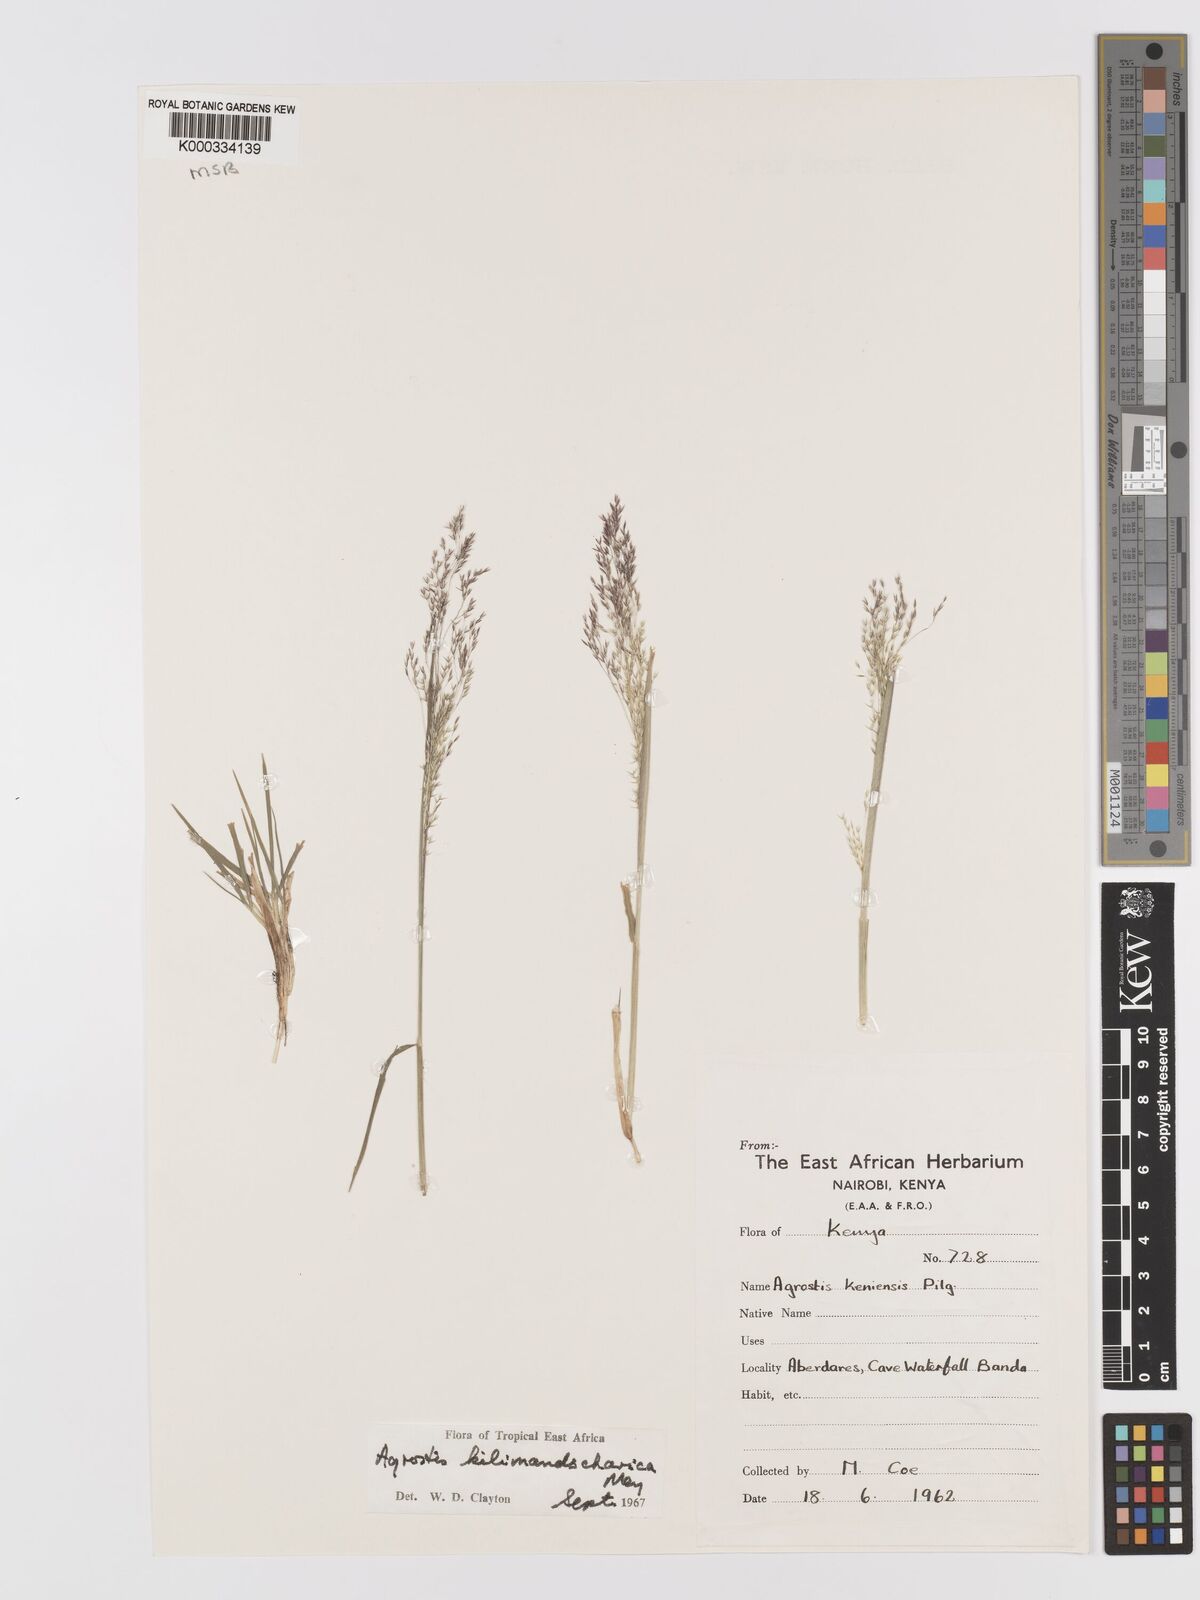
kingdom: Plantae
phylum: Tracheophyta
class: Liliopsida
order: Poales
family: Poaceae
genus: Agrostis
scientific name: Agrostis kilimandscharica
